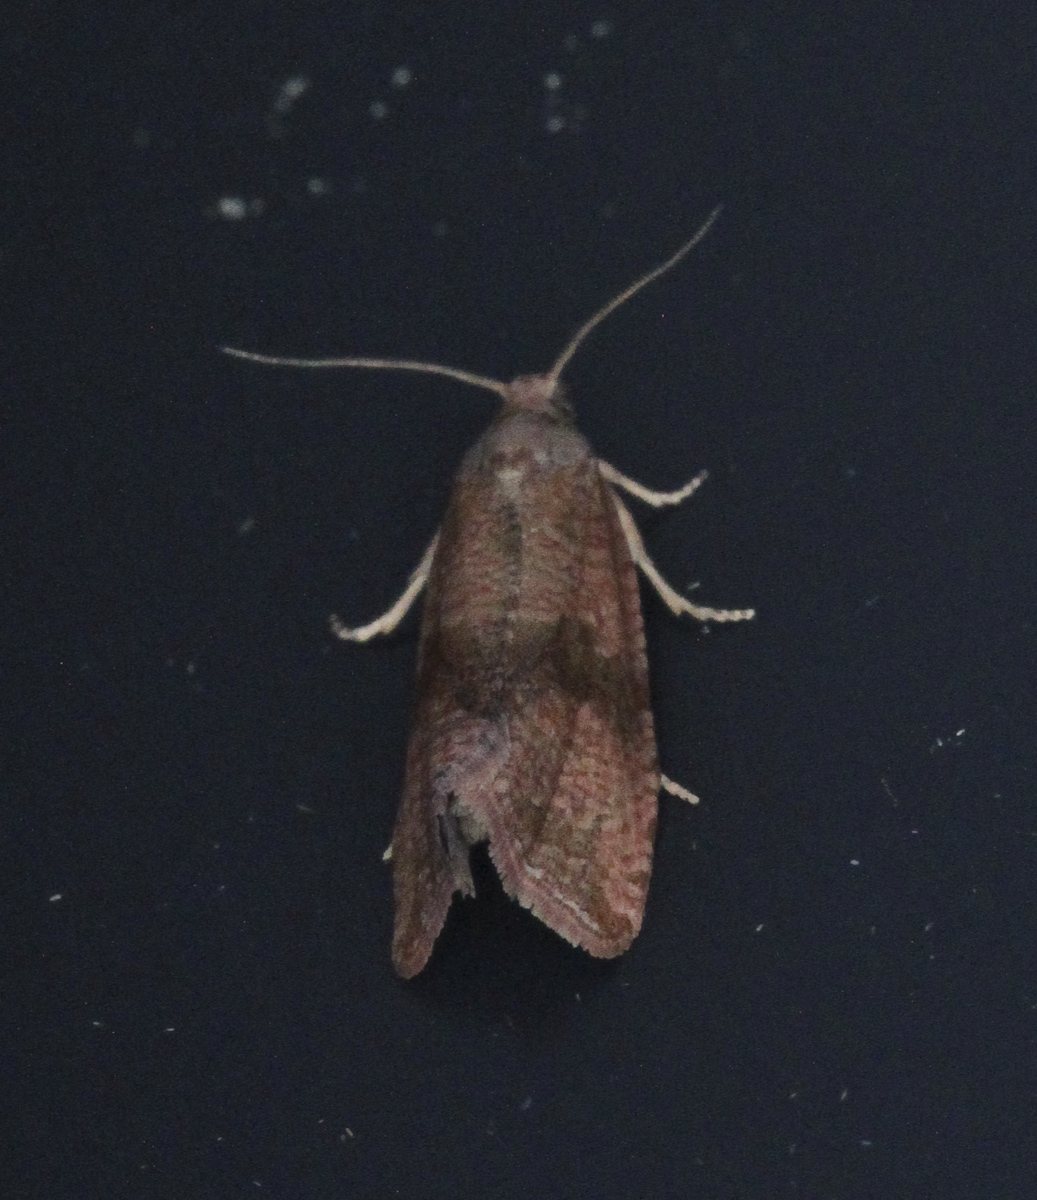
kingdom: Animalia
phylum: Arthropoda
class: Insecta
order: Lepidoptera
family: Tortricidae
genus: Celypha
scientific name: Celypha striana
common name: Barred marble
